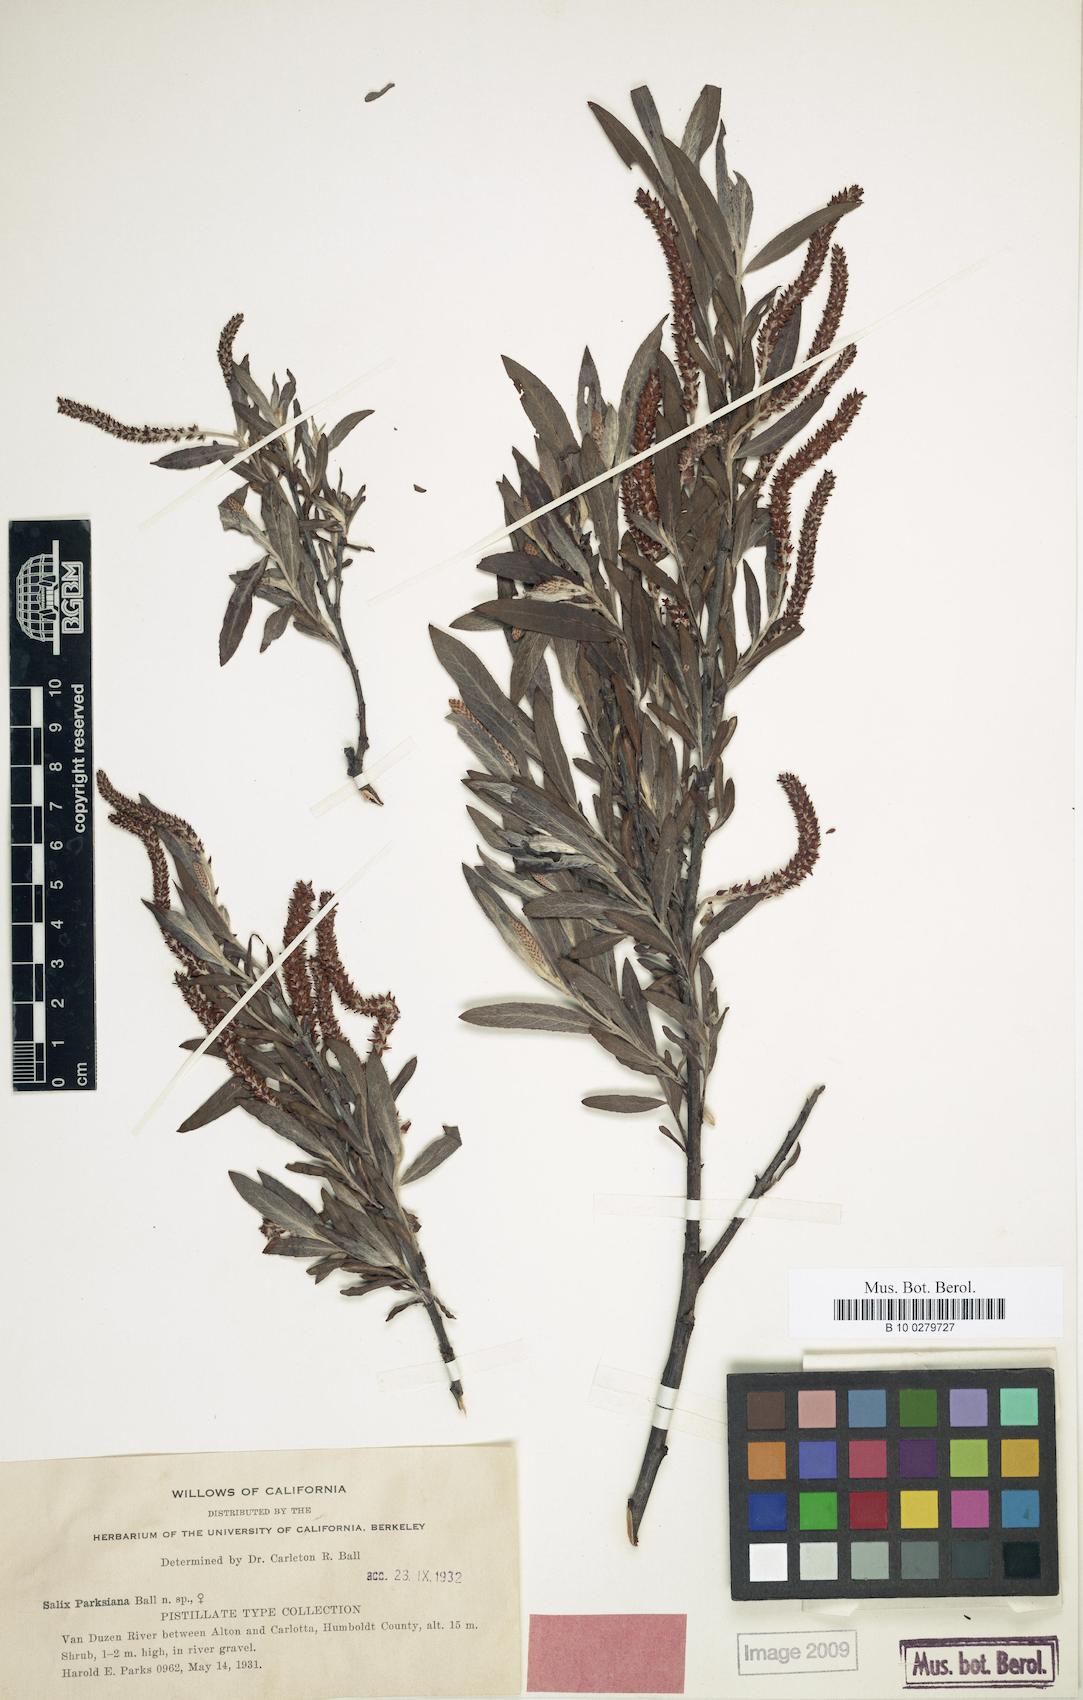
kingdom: Plantae
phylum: Tracheophyta
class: Magnoliopsida
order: Malpighiales
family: Salicaceae
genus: Salix
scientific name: Salix melanopsis
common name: Dusky willow
